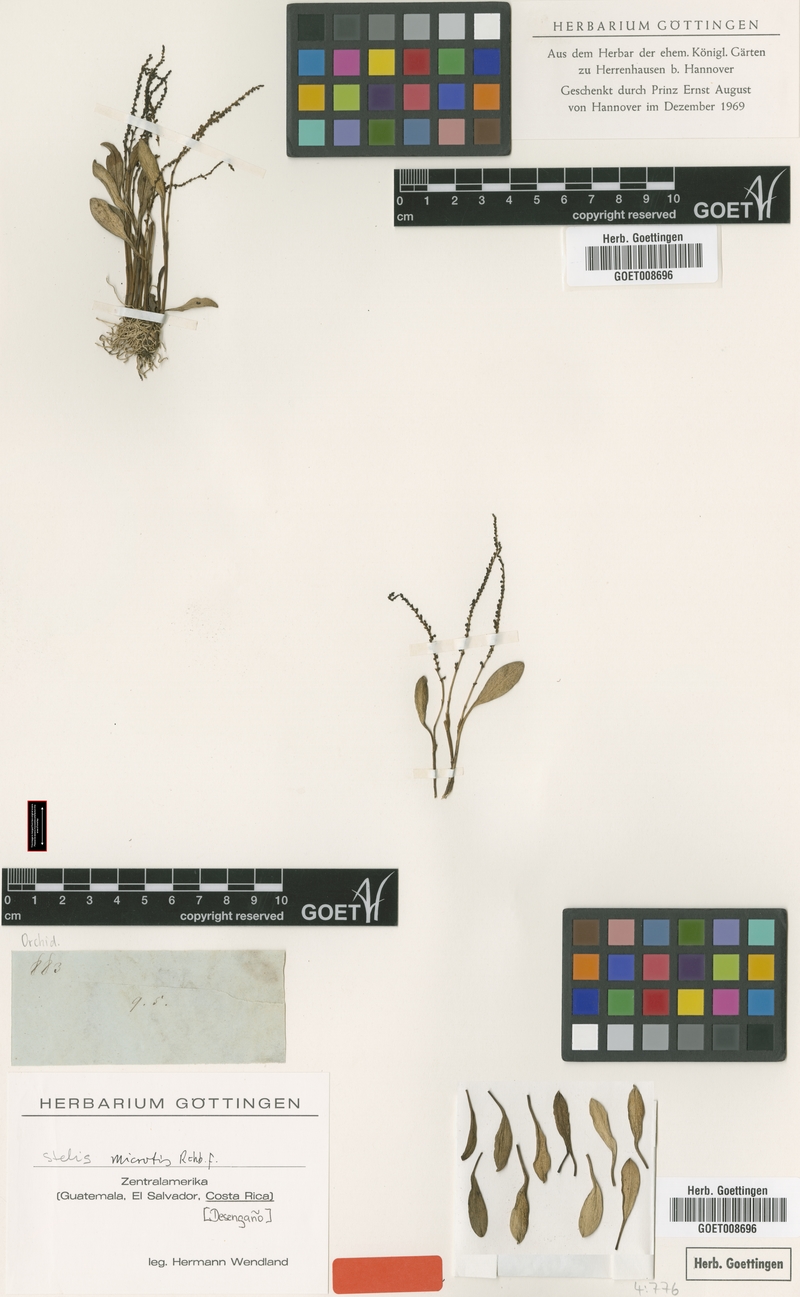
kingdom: Plantae
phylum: Tracheophyta
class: Liliopsida
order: Asparagales
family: Orchidaceae
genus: Stelis
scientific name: Stelis microtis
